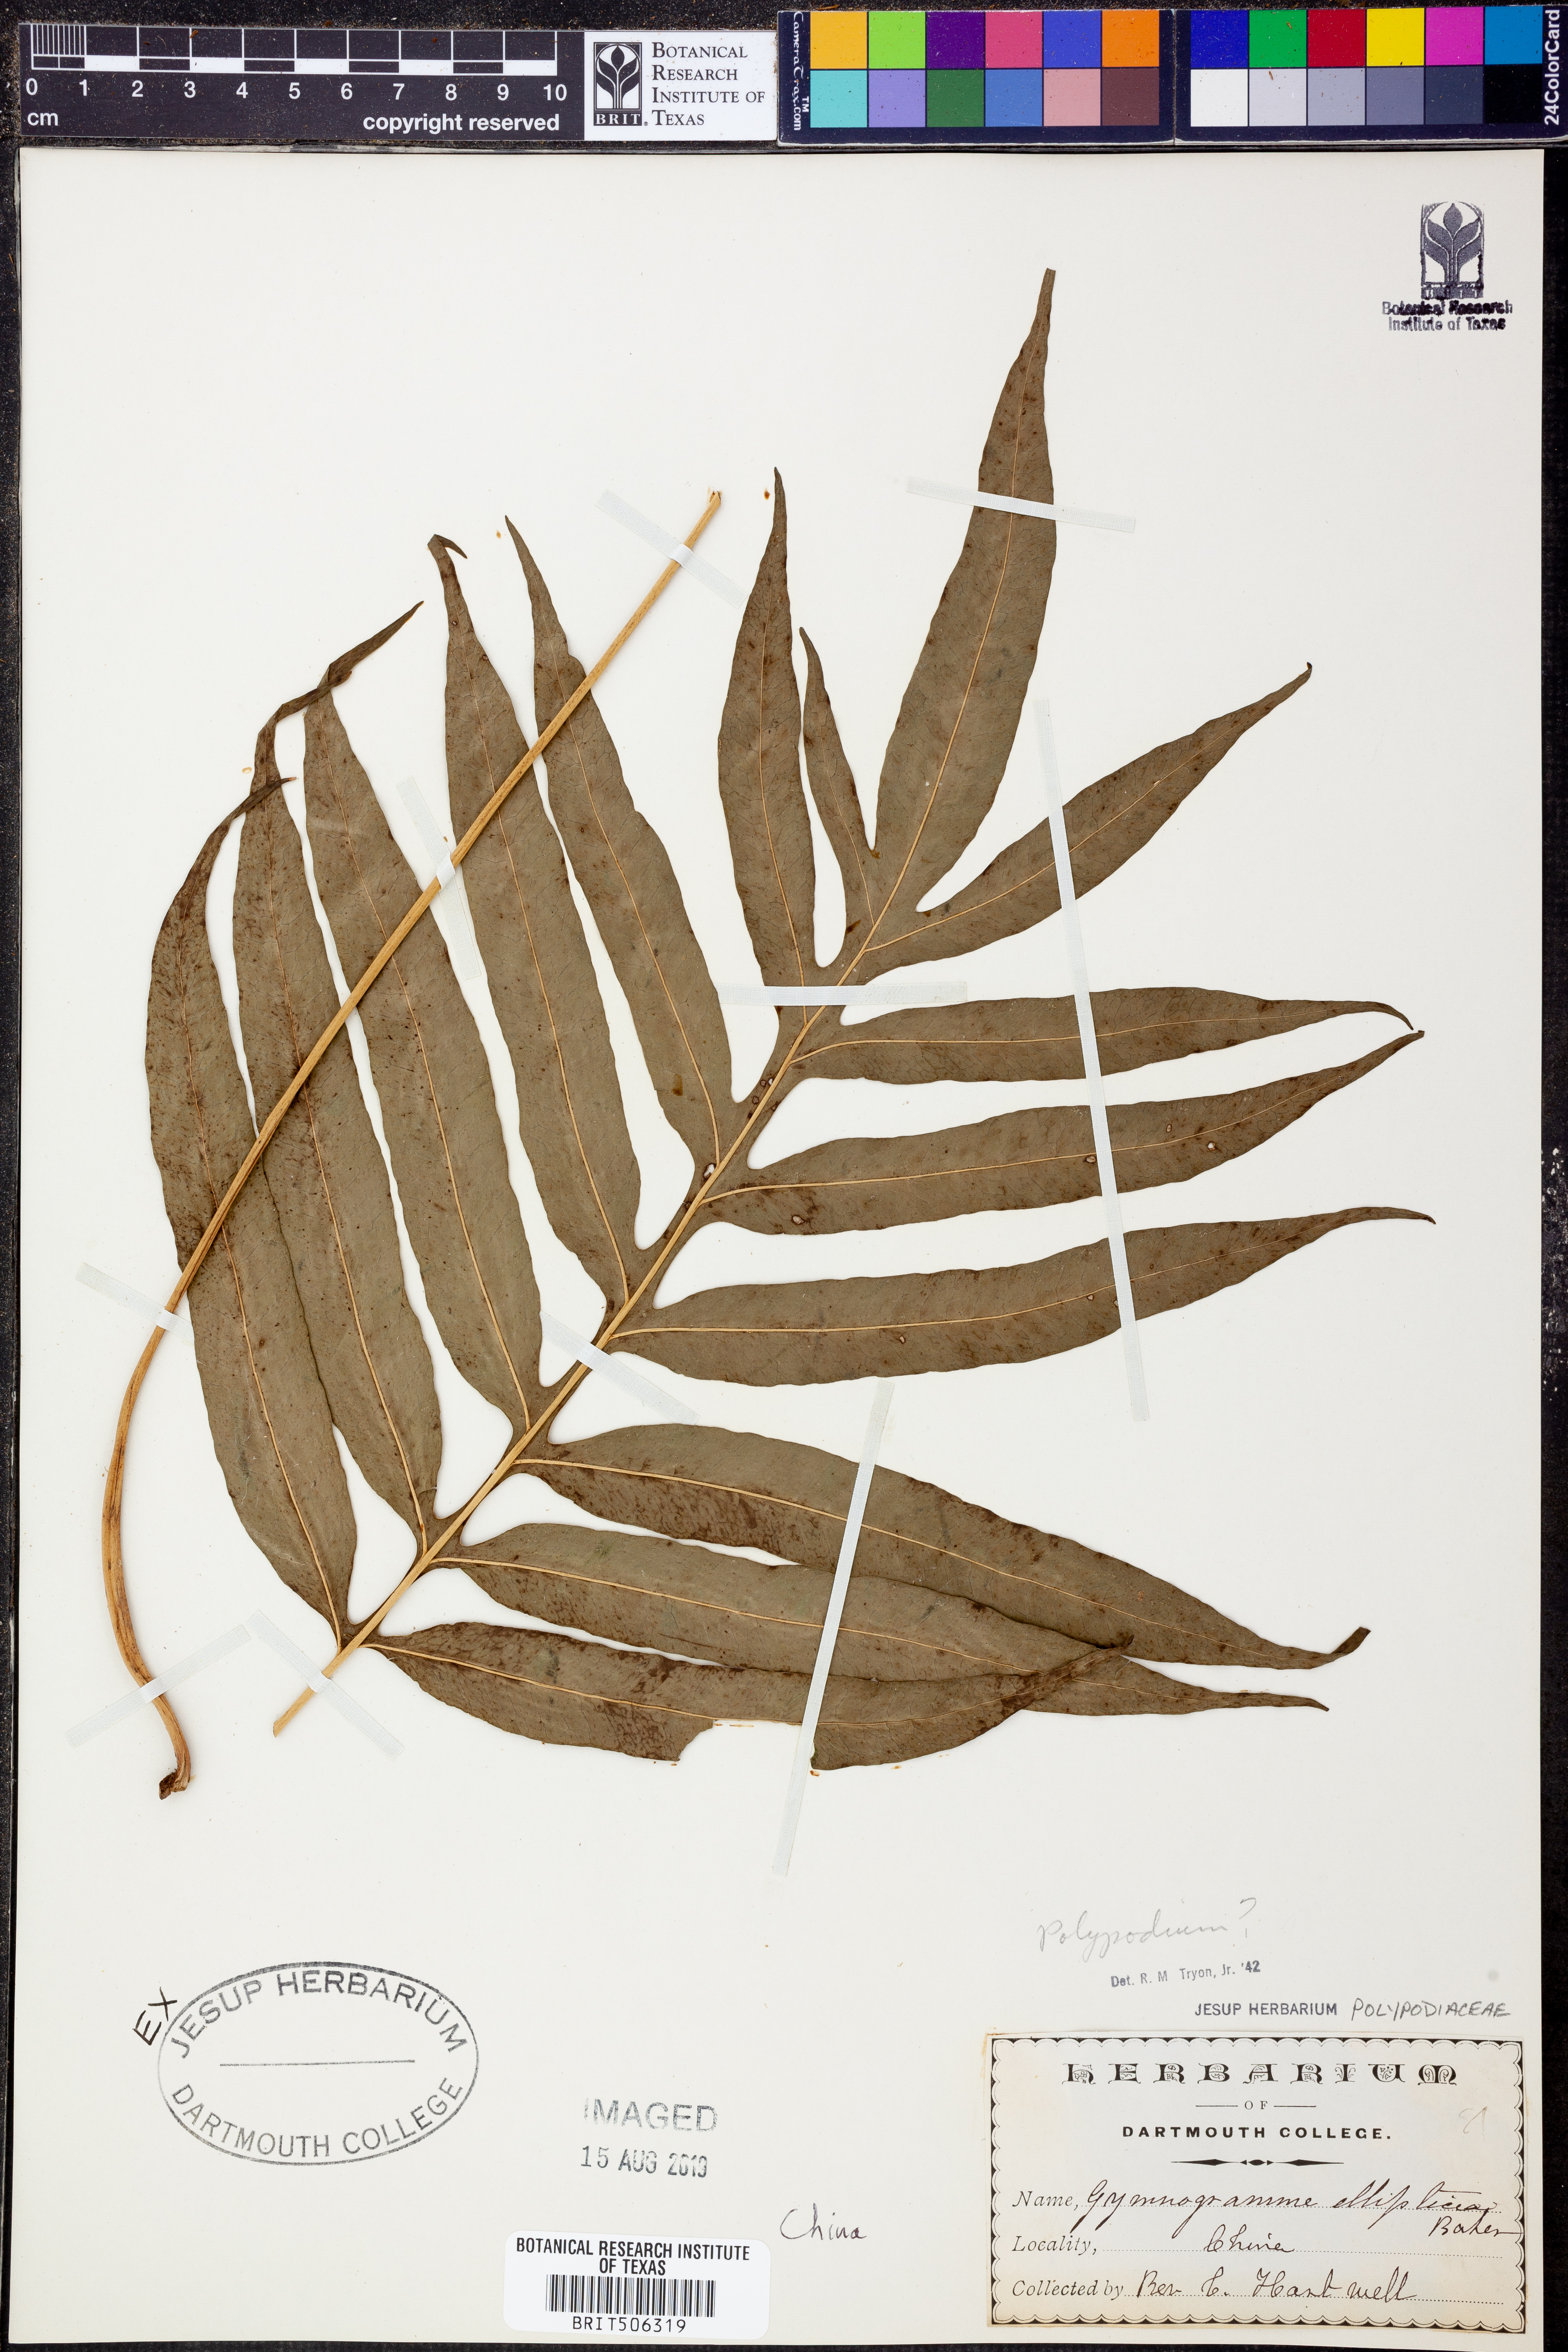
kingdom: Plantae
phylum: Tracheophyta
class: Polypodiopsida
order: Polypodiales
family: Polypodiaceae
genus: Polypodium
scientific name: Polypodium
